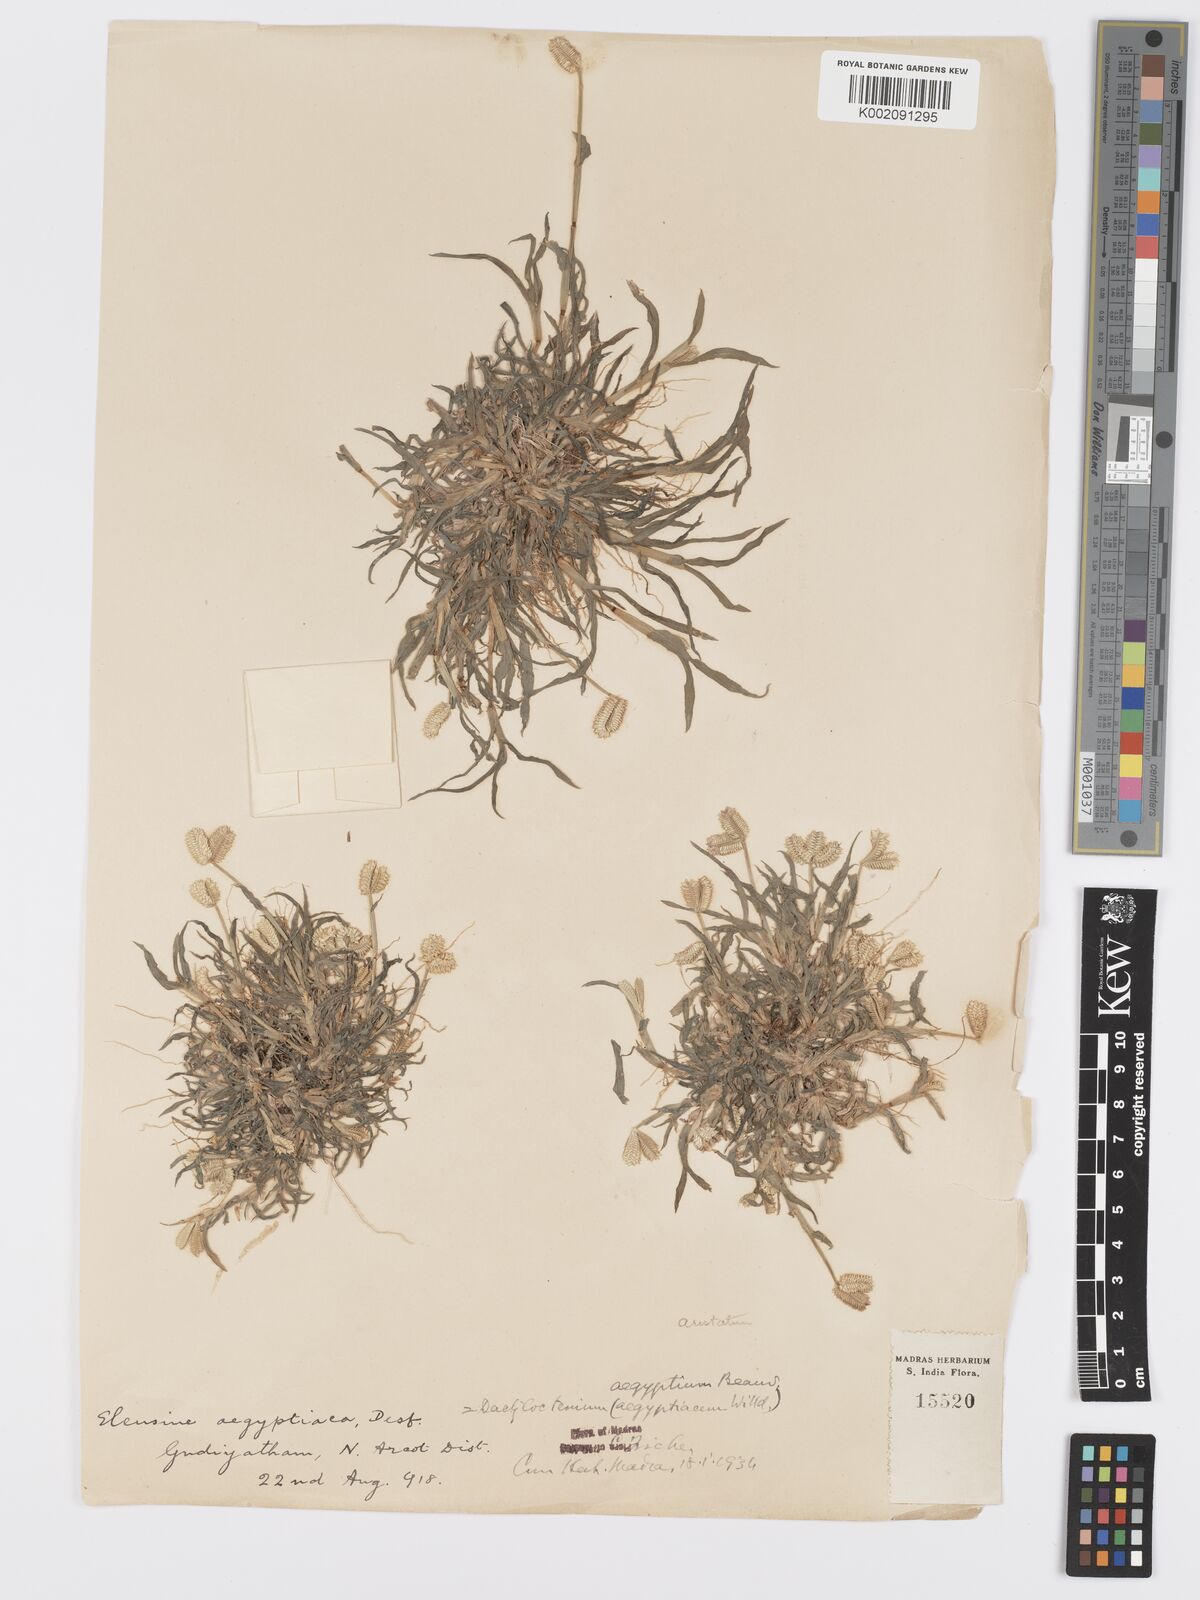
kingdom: Plantae
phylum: Tracheophyta
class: Liliopsida
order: Poales
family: Poaceae
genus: Dactyloctenium
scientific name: Dactyloctenium aegyptium
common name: Egyptian grass
